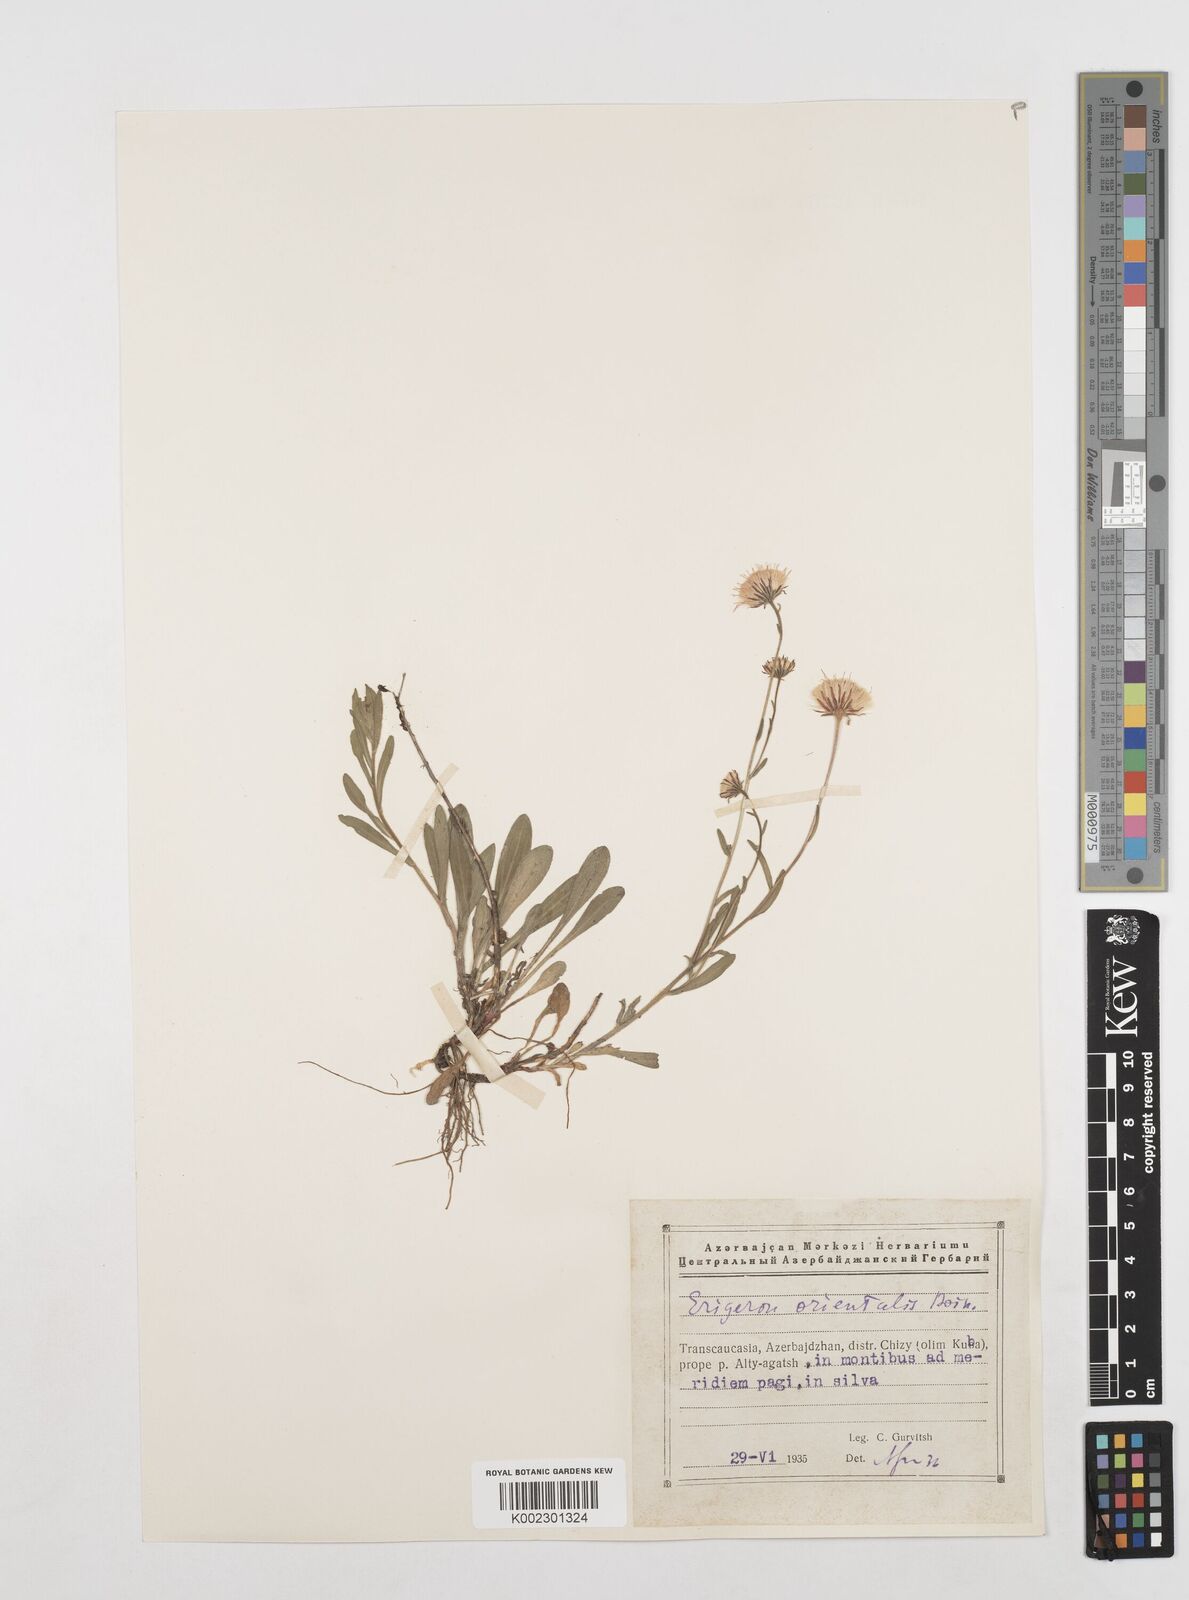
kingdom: Plantae
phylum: Tracheophyta
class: Magnoliopsida
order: Asterales
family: Asteraceae
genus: Erigeron
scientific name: Erigeron acris
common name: Blue fleabane
